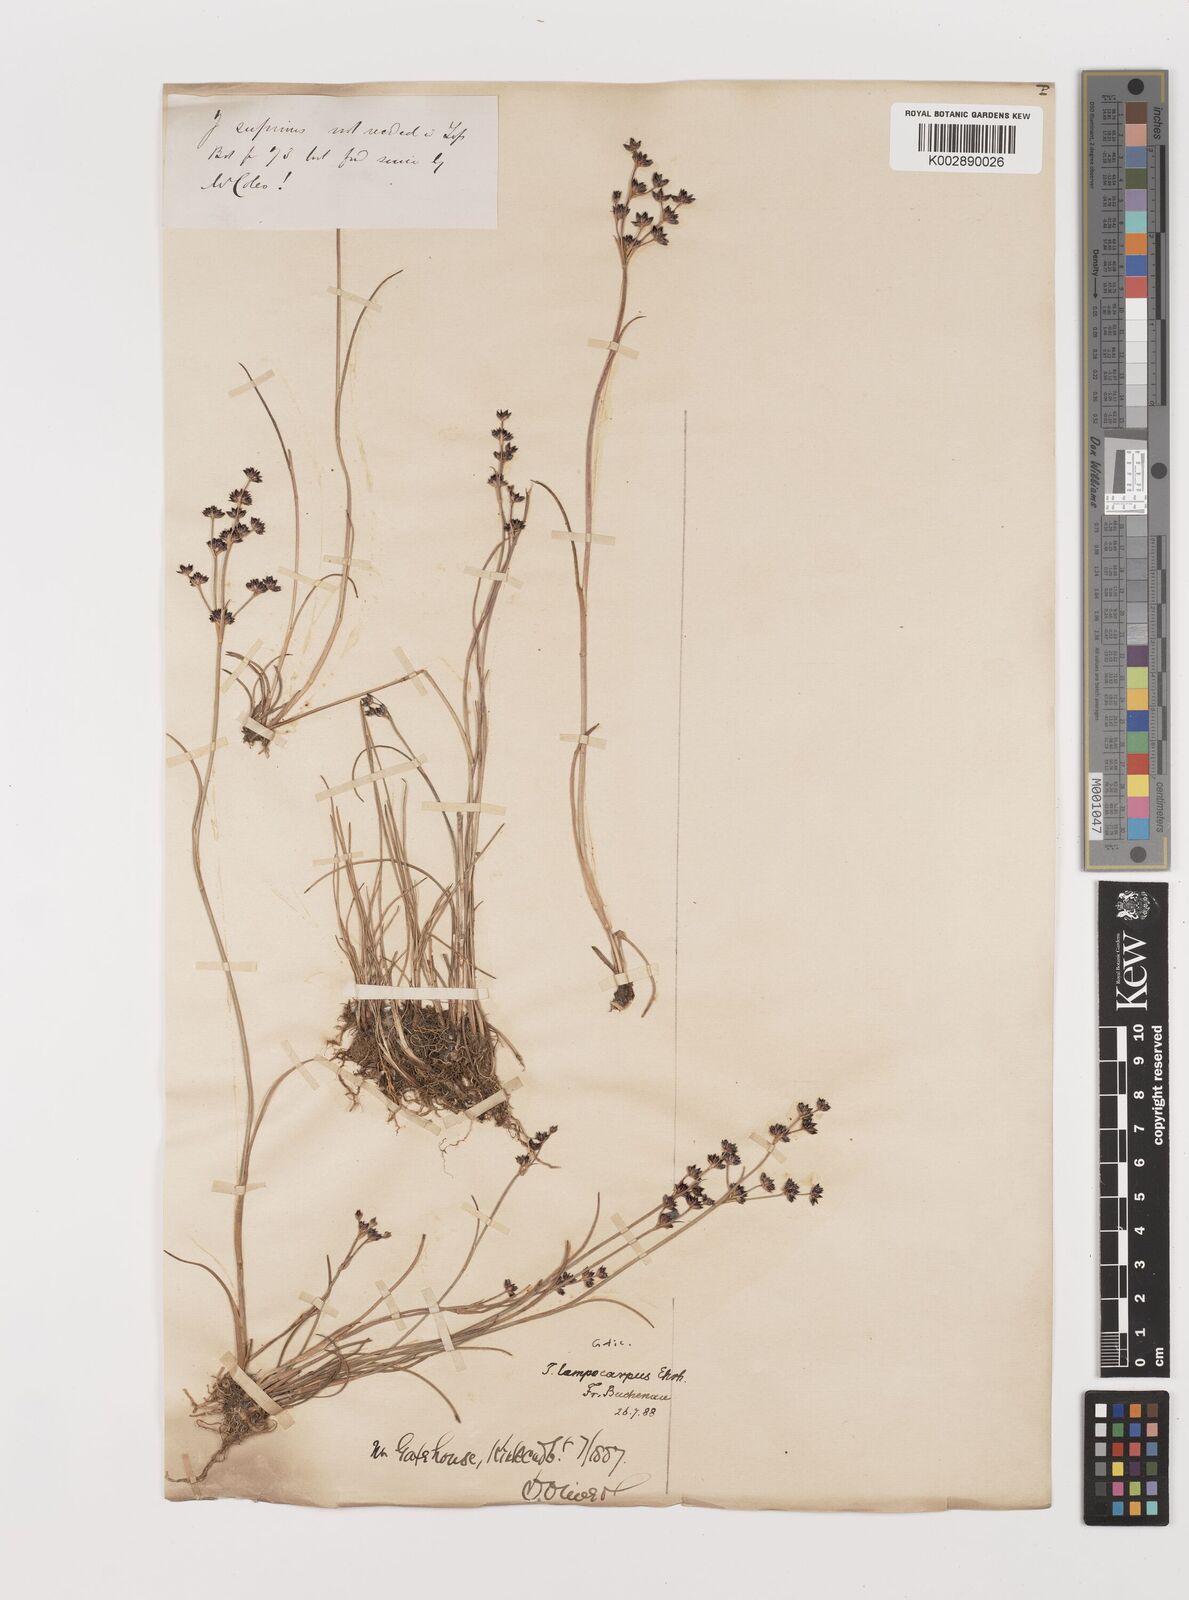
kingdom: Plantae
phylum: Tracheophyta
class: Liliopsida
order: Poales
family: Juncaceae
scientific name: Juncaceae
